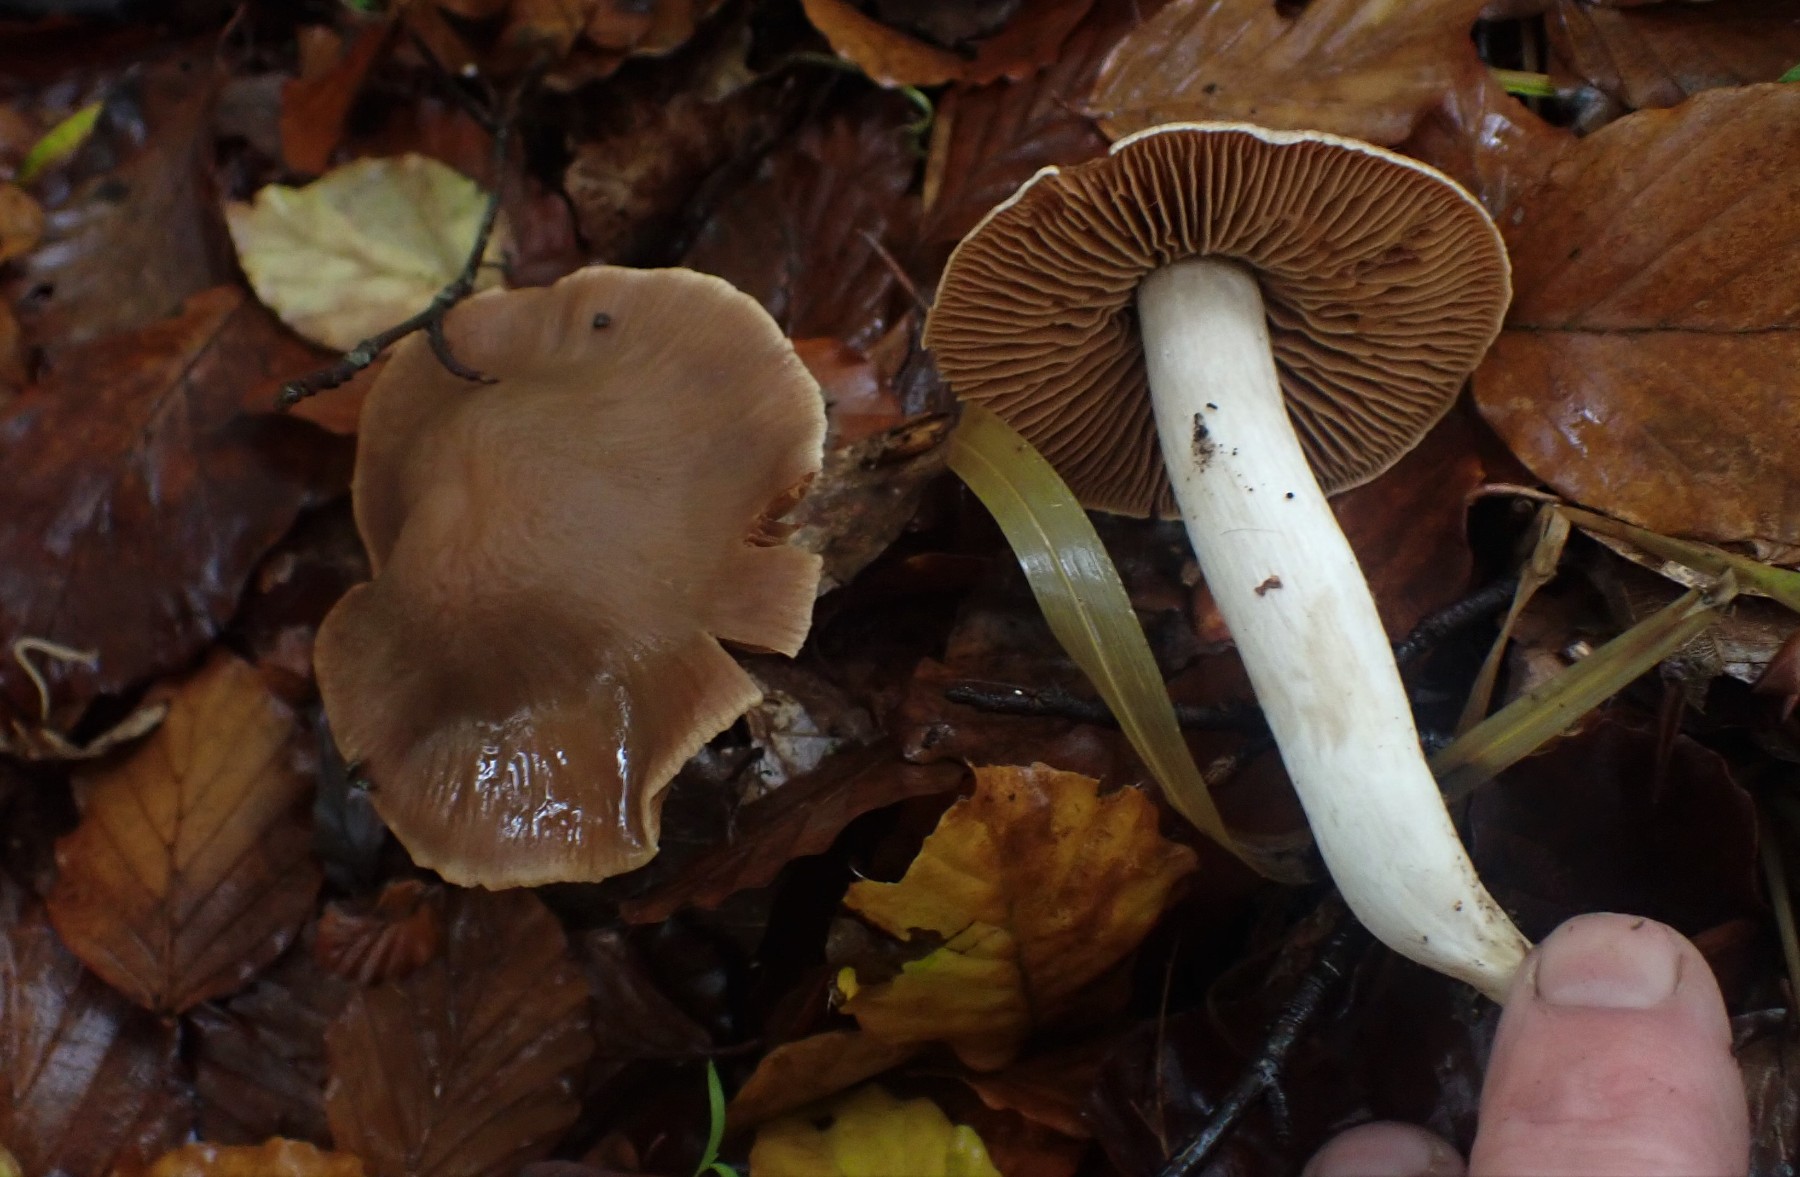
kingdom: Fungi
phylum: Basidiomycota
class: Agaricomycetes
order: Agaricales
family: Cortinariaceae
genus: Cortinarius
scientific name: Cortinarius
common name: jod-slørhat
